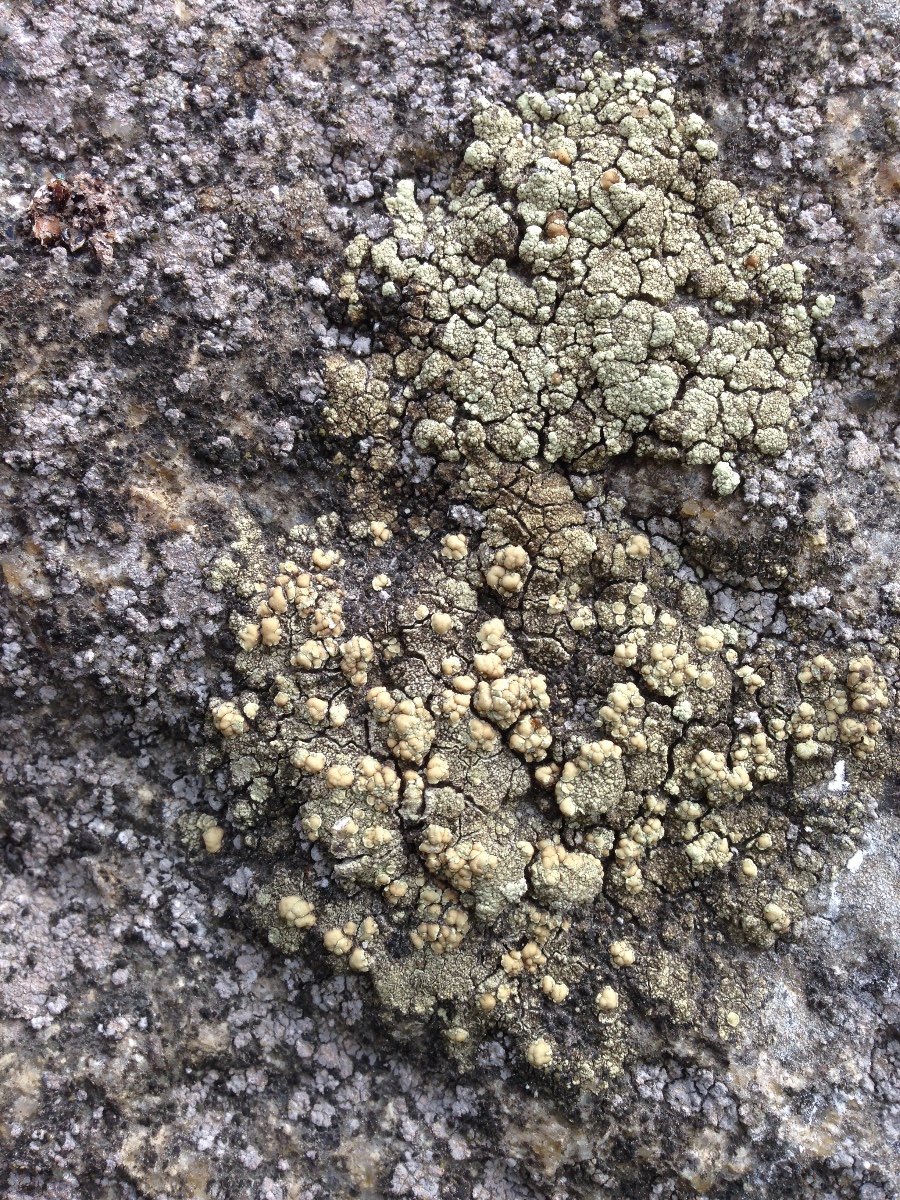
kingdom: Fungi
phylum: Ascomycota
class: Lecanoromycetes
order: Lecanorales
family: Lecanoraceae
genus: Lecanora
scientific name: Lecanora polytropa
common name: bleggrøn kantskivelav
